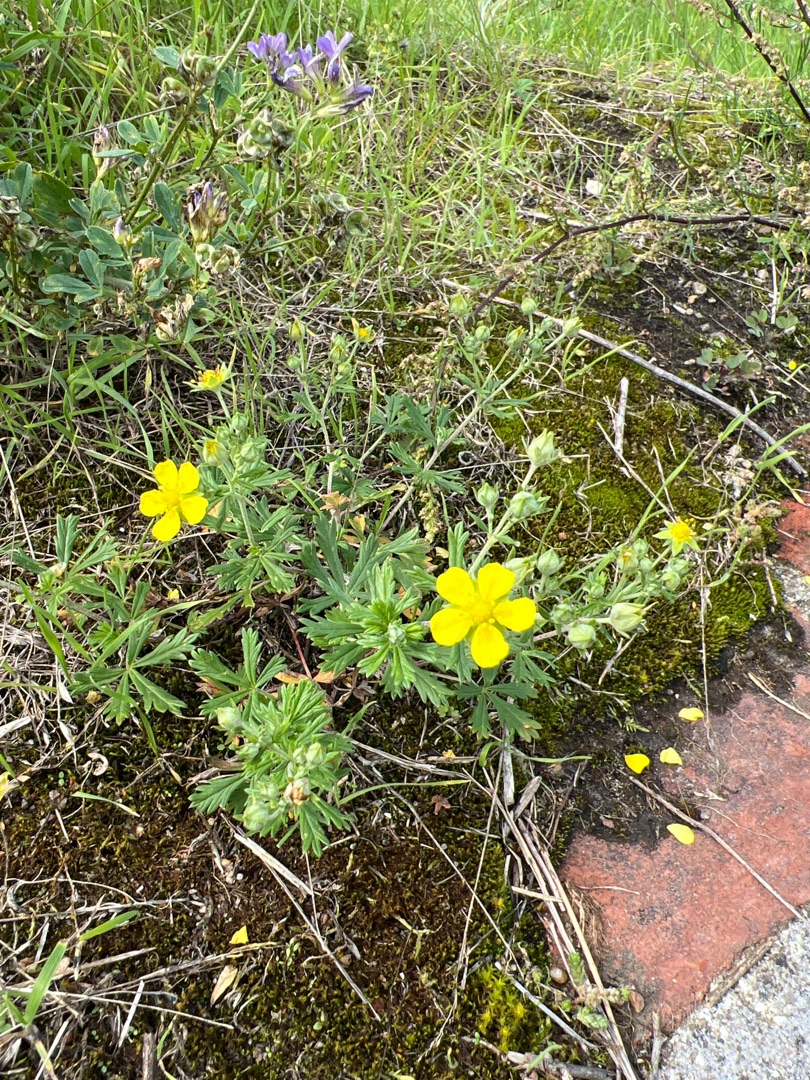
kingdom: Plantae
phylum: Tracheophyta
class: Magnoliopsida
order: Rosales
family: Rosaceae
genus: Potentilla
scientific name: Potentilla argentea
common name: Sølv-potentil
